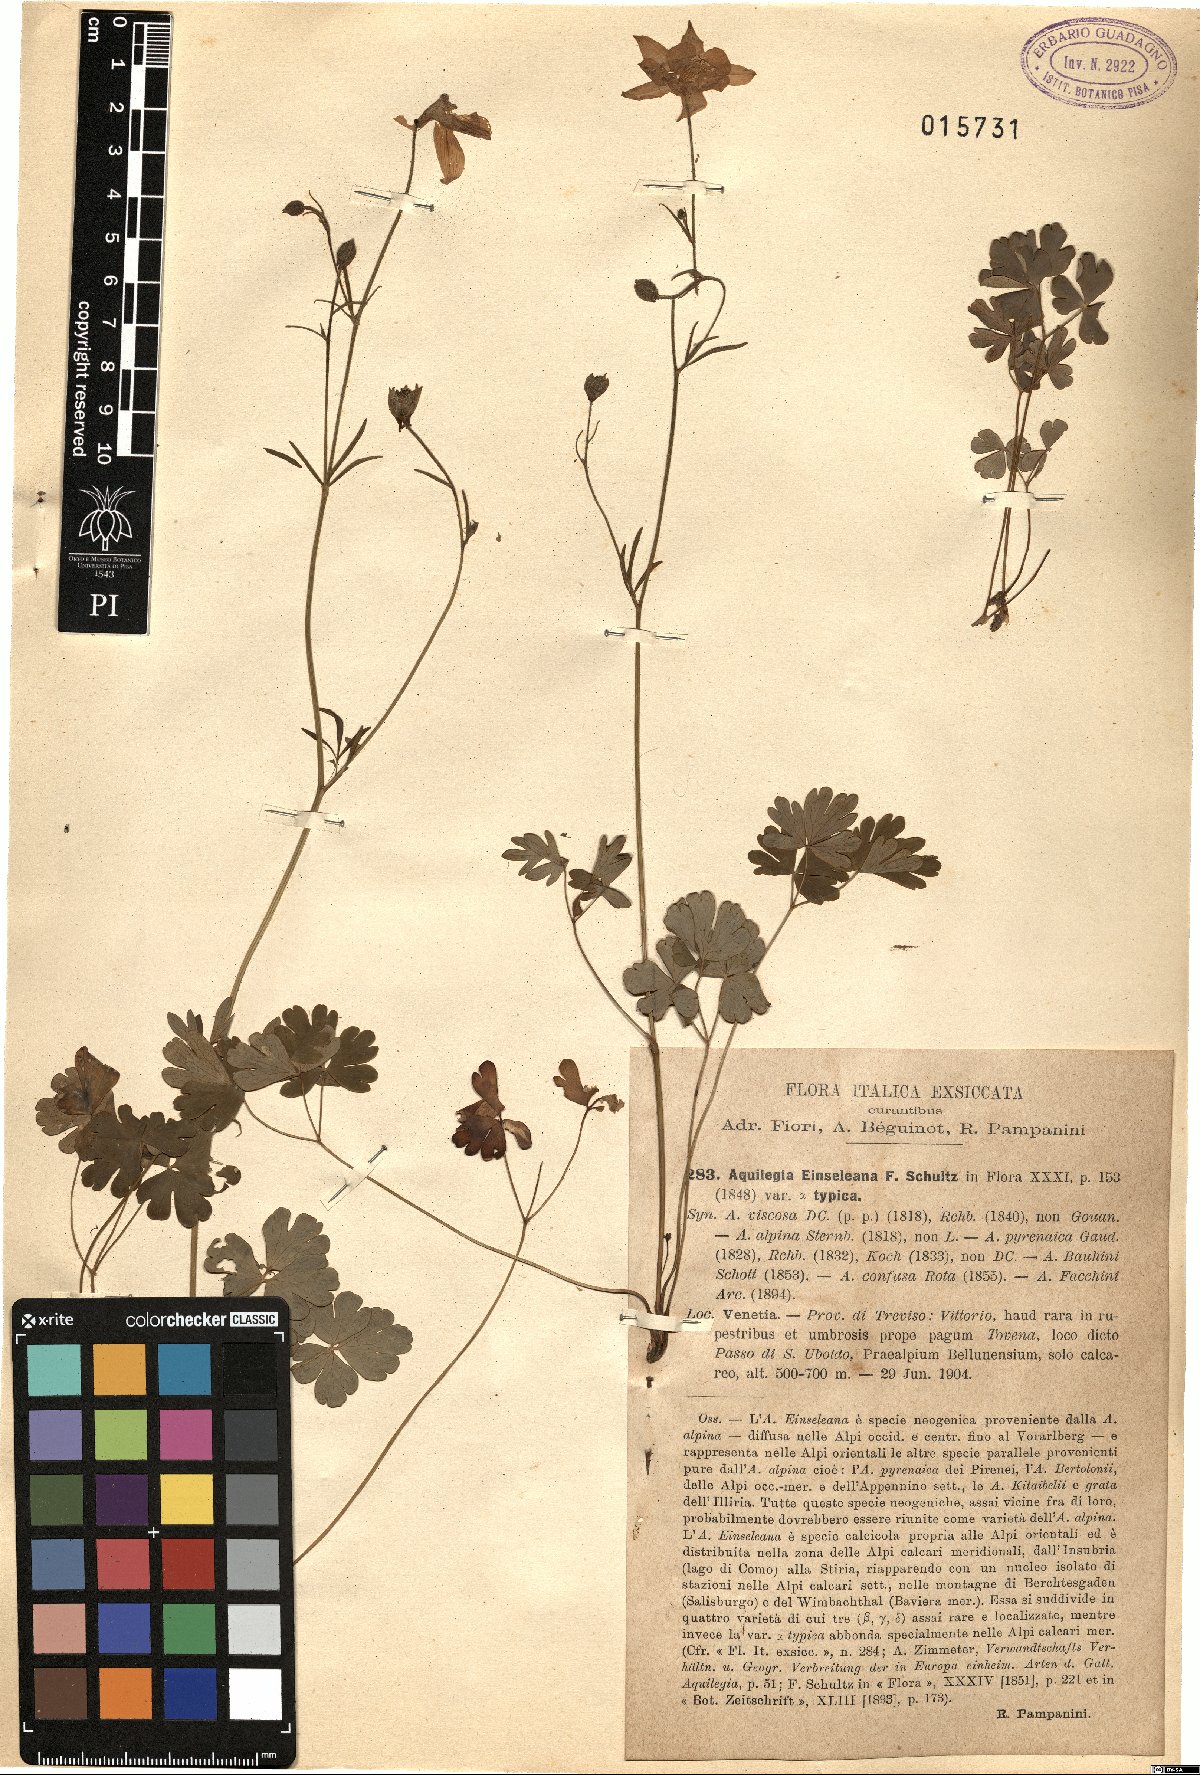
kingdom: Plantae
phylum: Tracheophyta
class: Magnoliopsida
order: Ranunculales
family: Ranunculaceae
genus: Aquilegia
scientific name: Aquilegia einseleana
